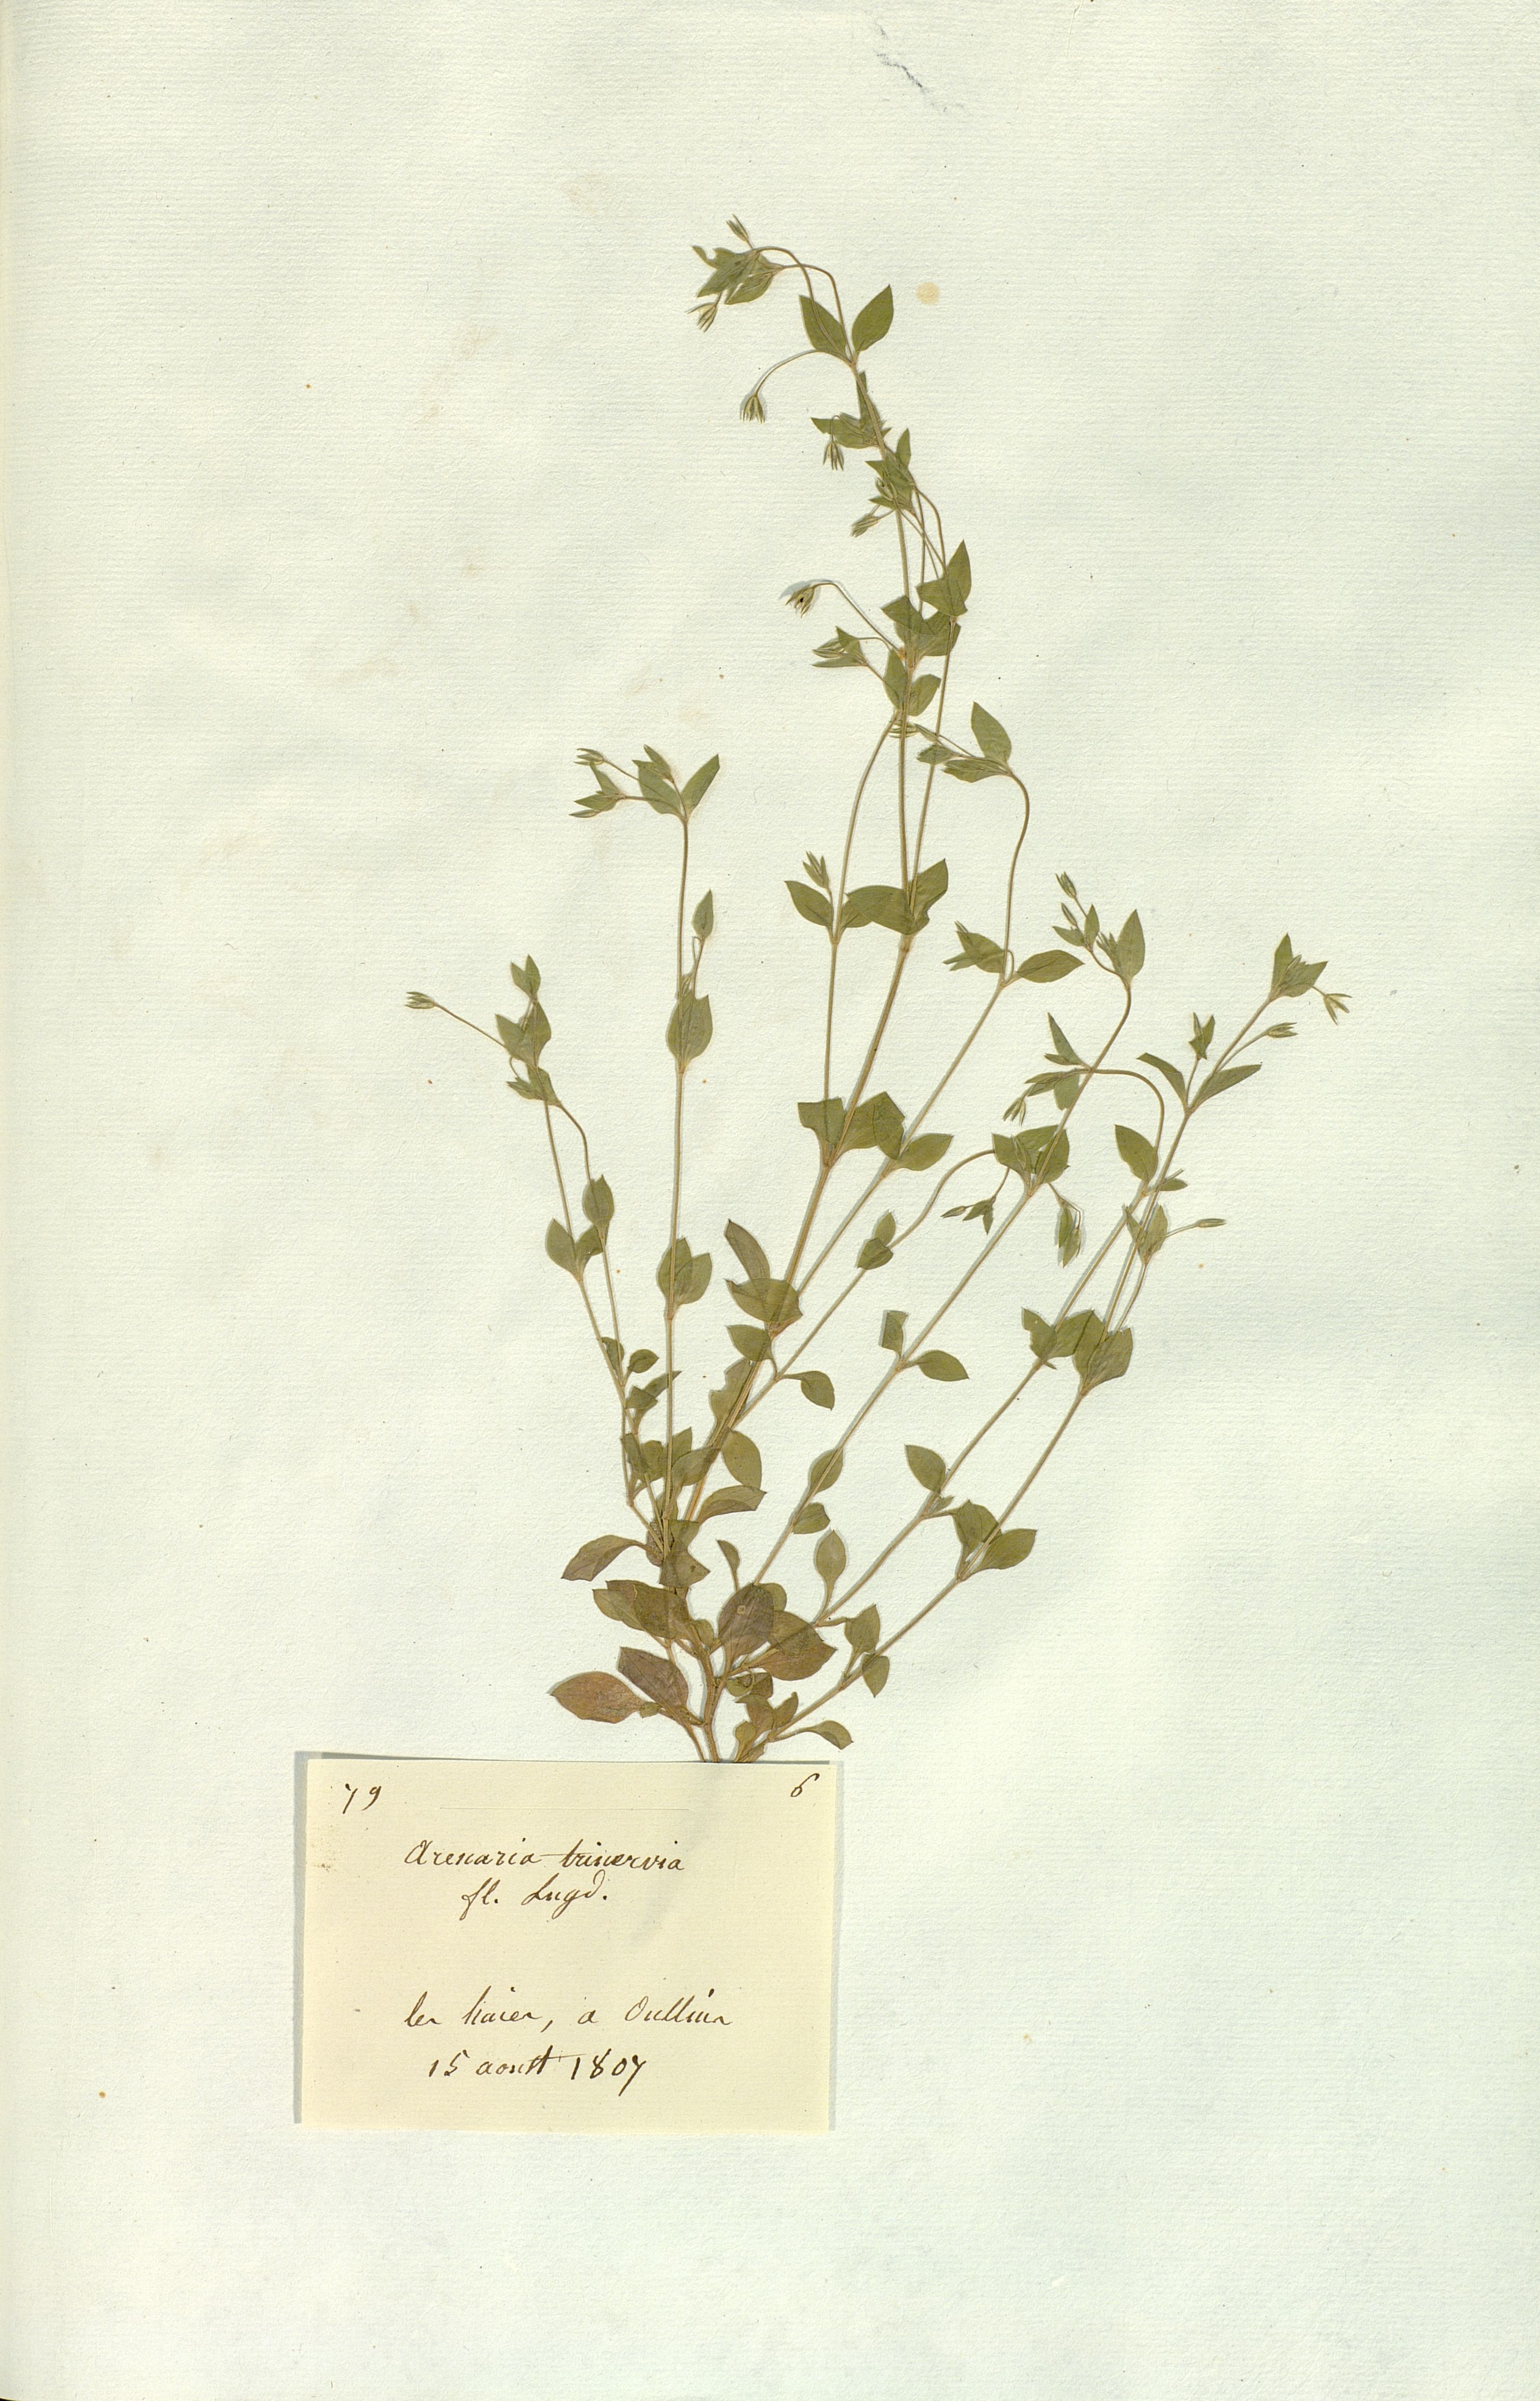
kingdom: Plantae
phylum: Tracheophyta
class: Magnoliopsida
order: Caryophyllales
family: Caryophyllaceae
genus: Moehringia
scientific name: Moehringia trinervia
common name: Three-nerved sandwort
